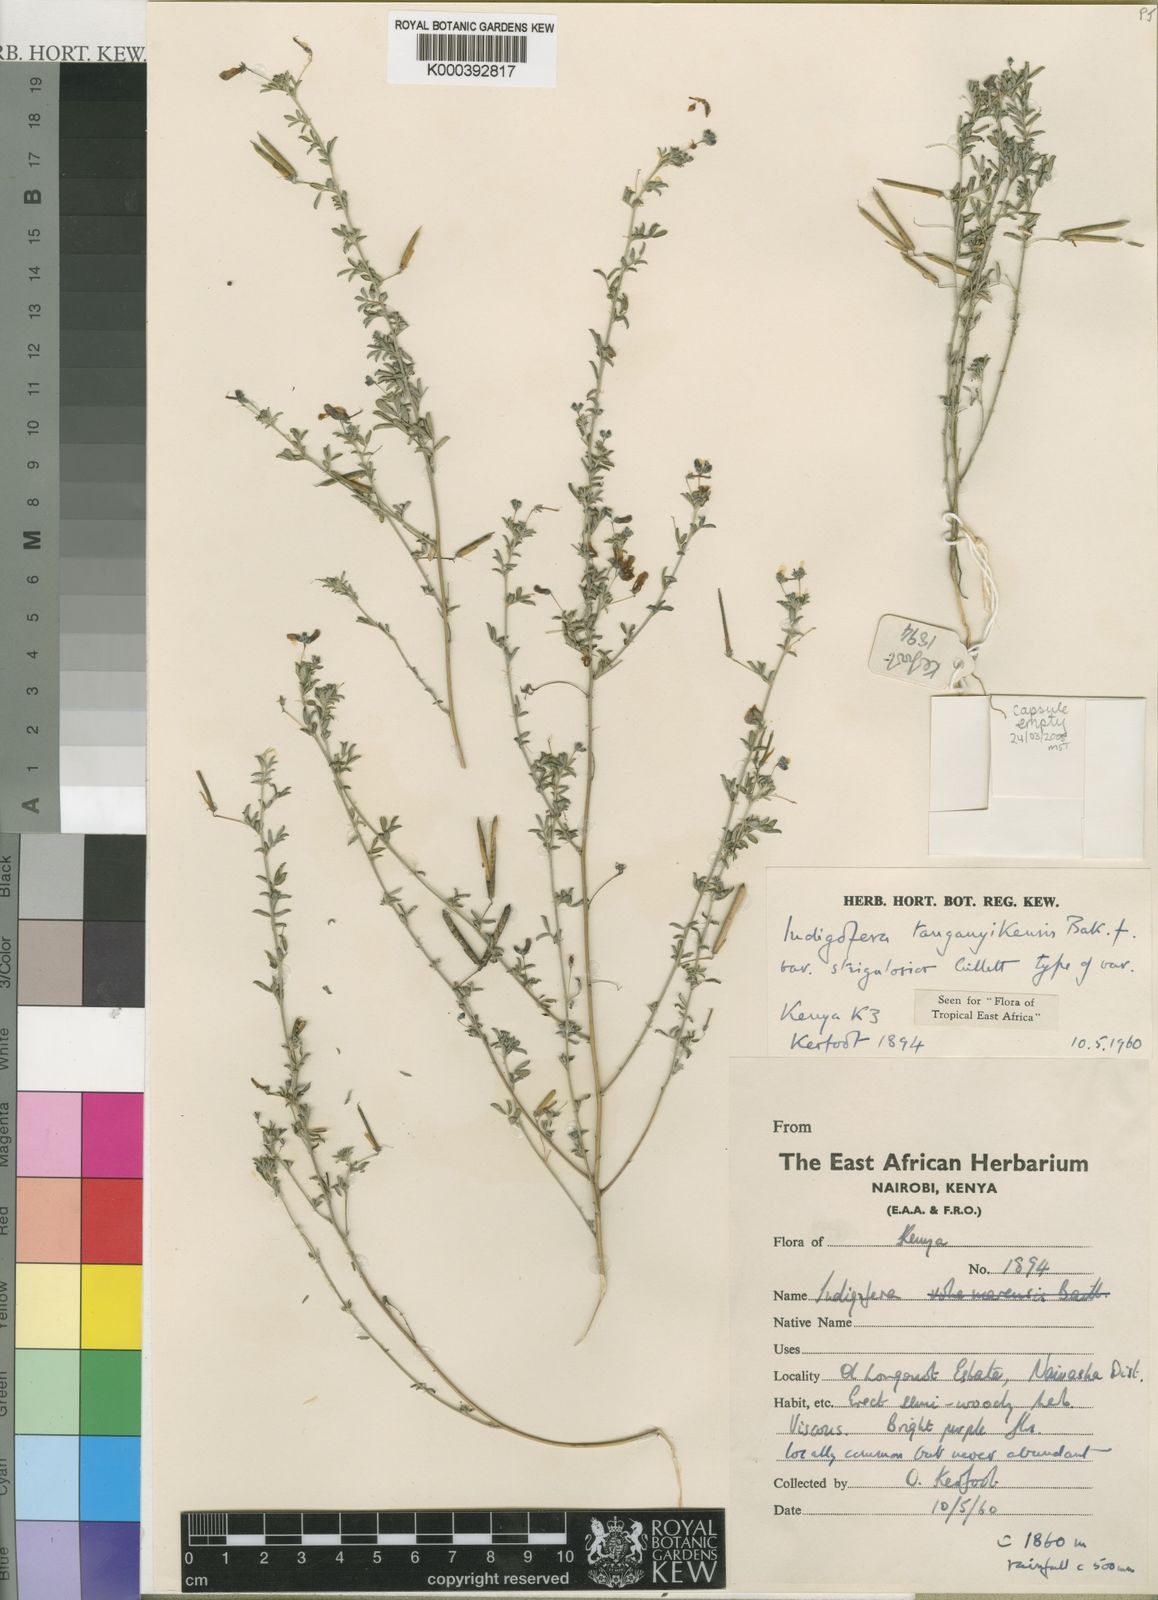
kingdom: Plantae
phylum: Tracheophyta
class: Magnoliopsida
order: Fabales
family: Fabaceae
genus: Indigofera
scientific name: Indigofera tanganyikensis
